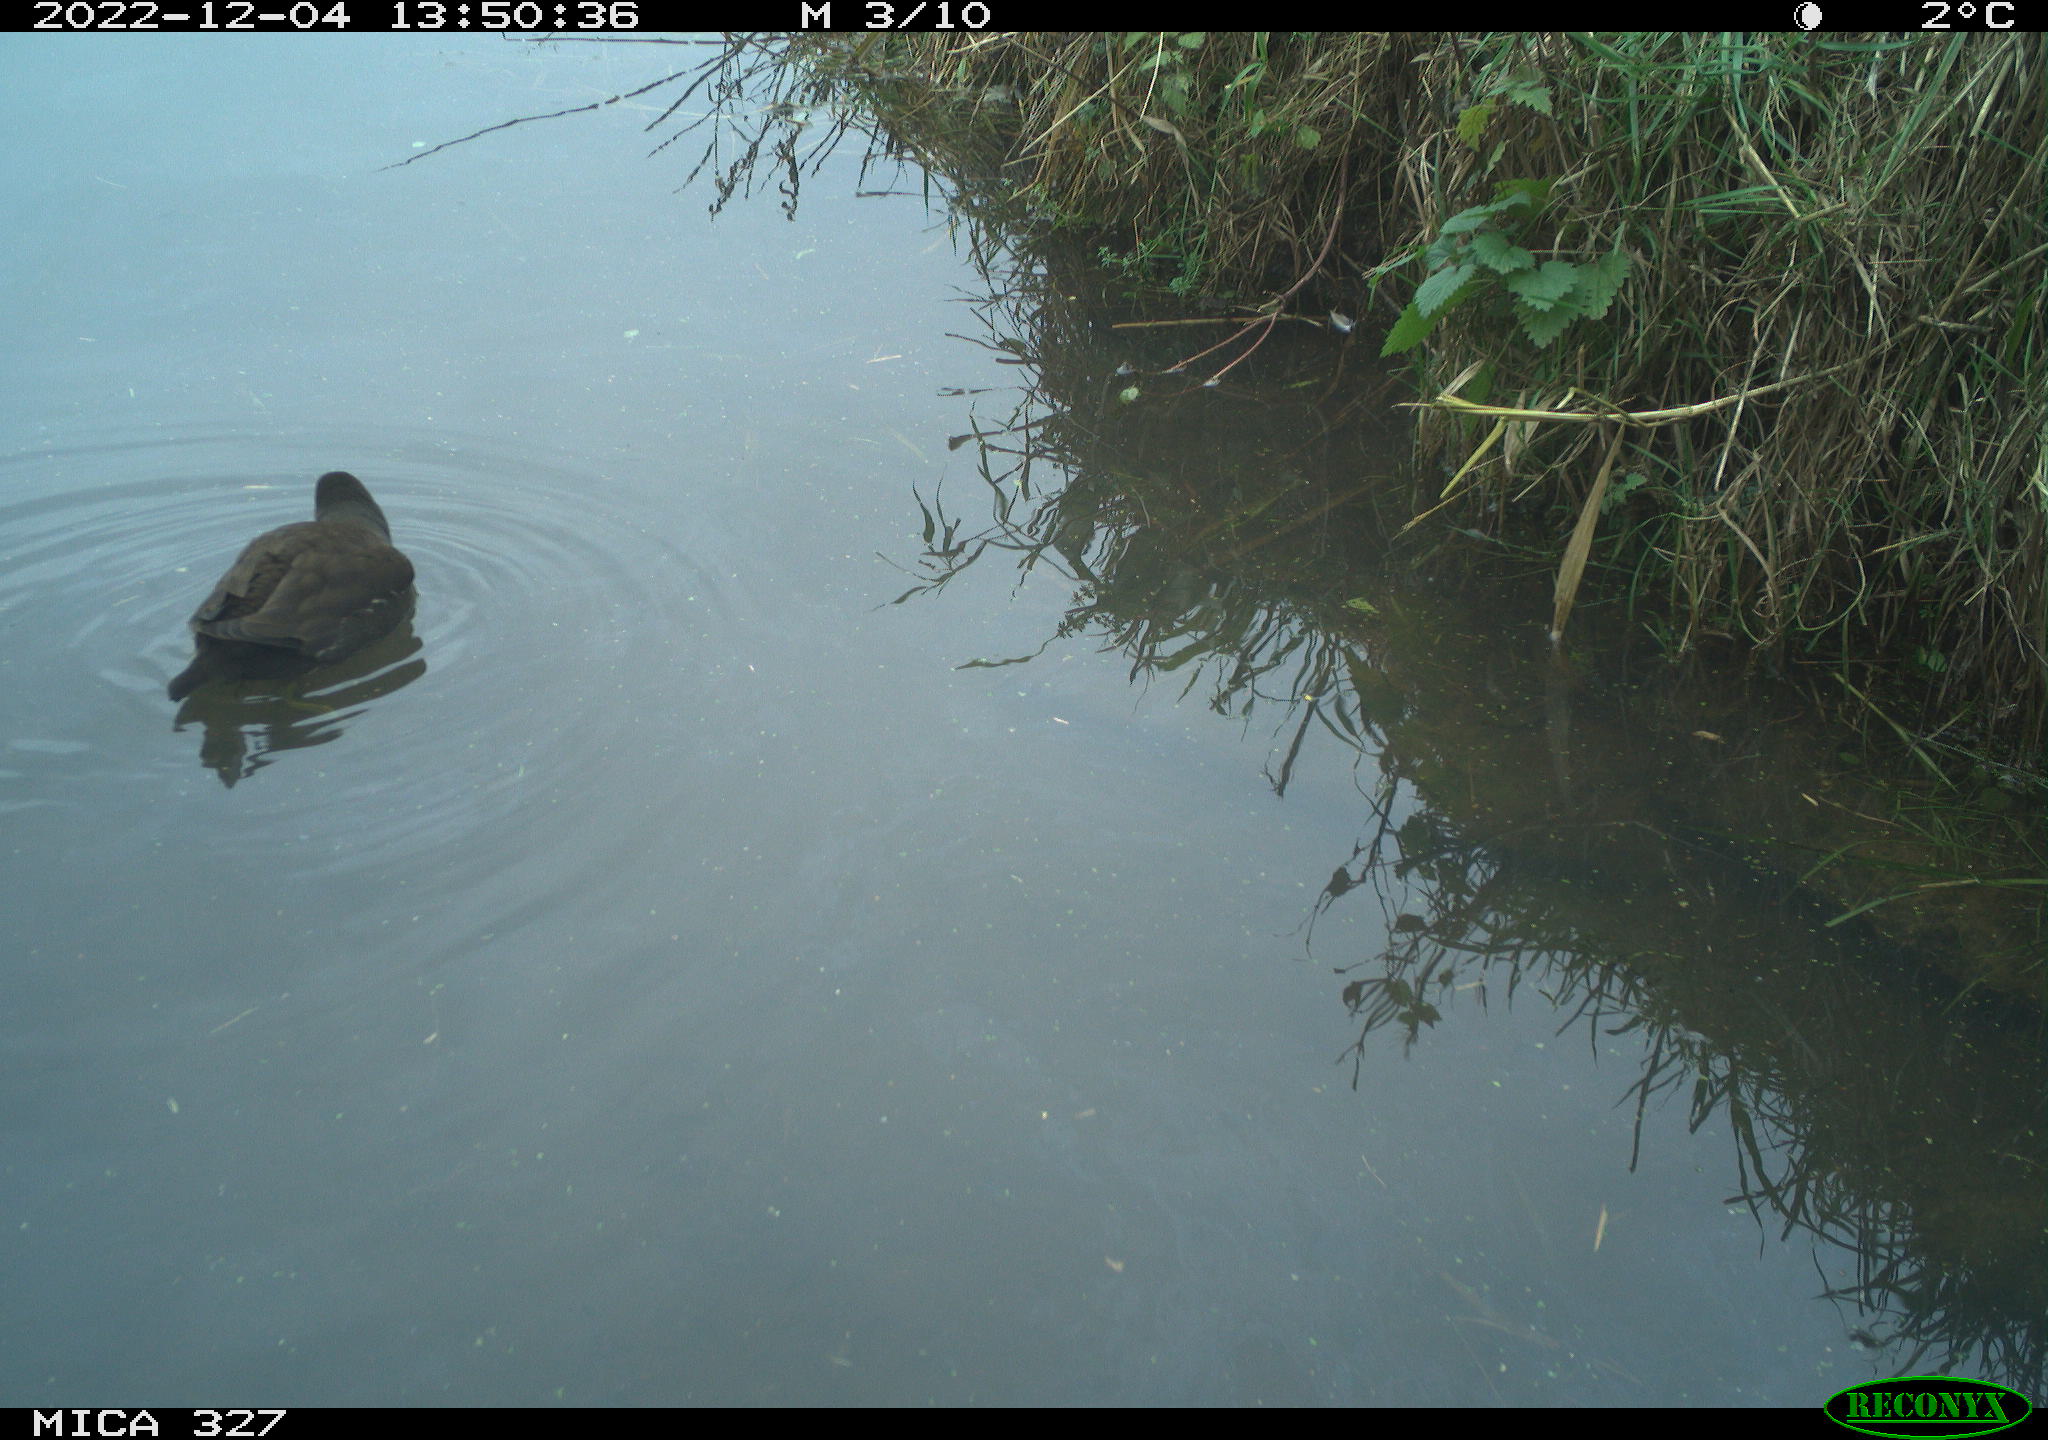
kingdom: Animalia
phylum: Chordata
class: Aves
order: Gruiformes
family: Rallidae
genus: Gallinula
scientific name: Gallinula chloropus
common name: Common moorhen
